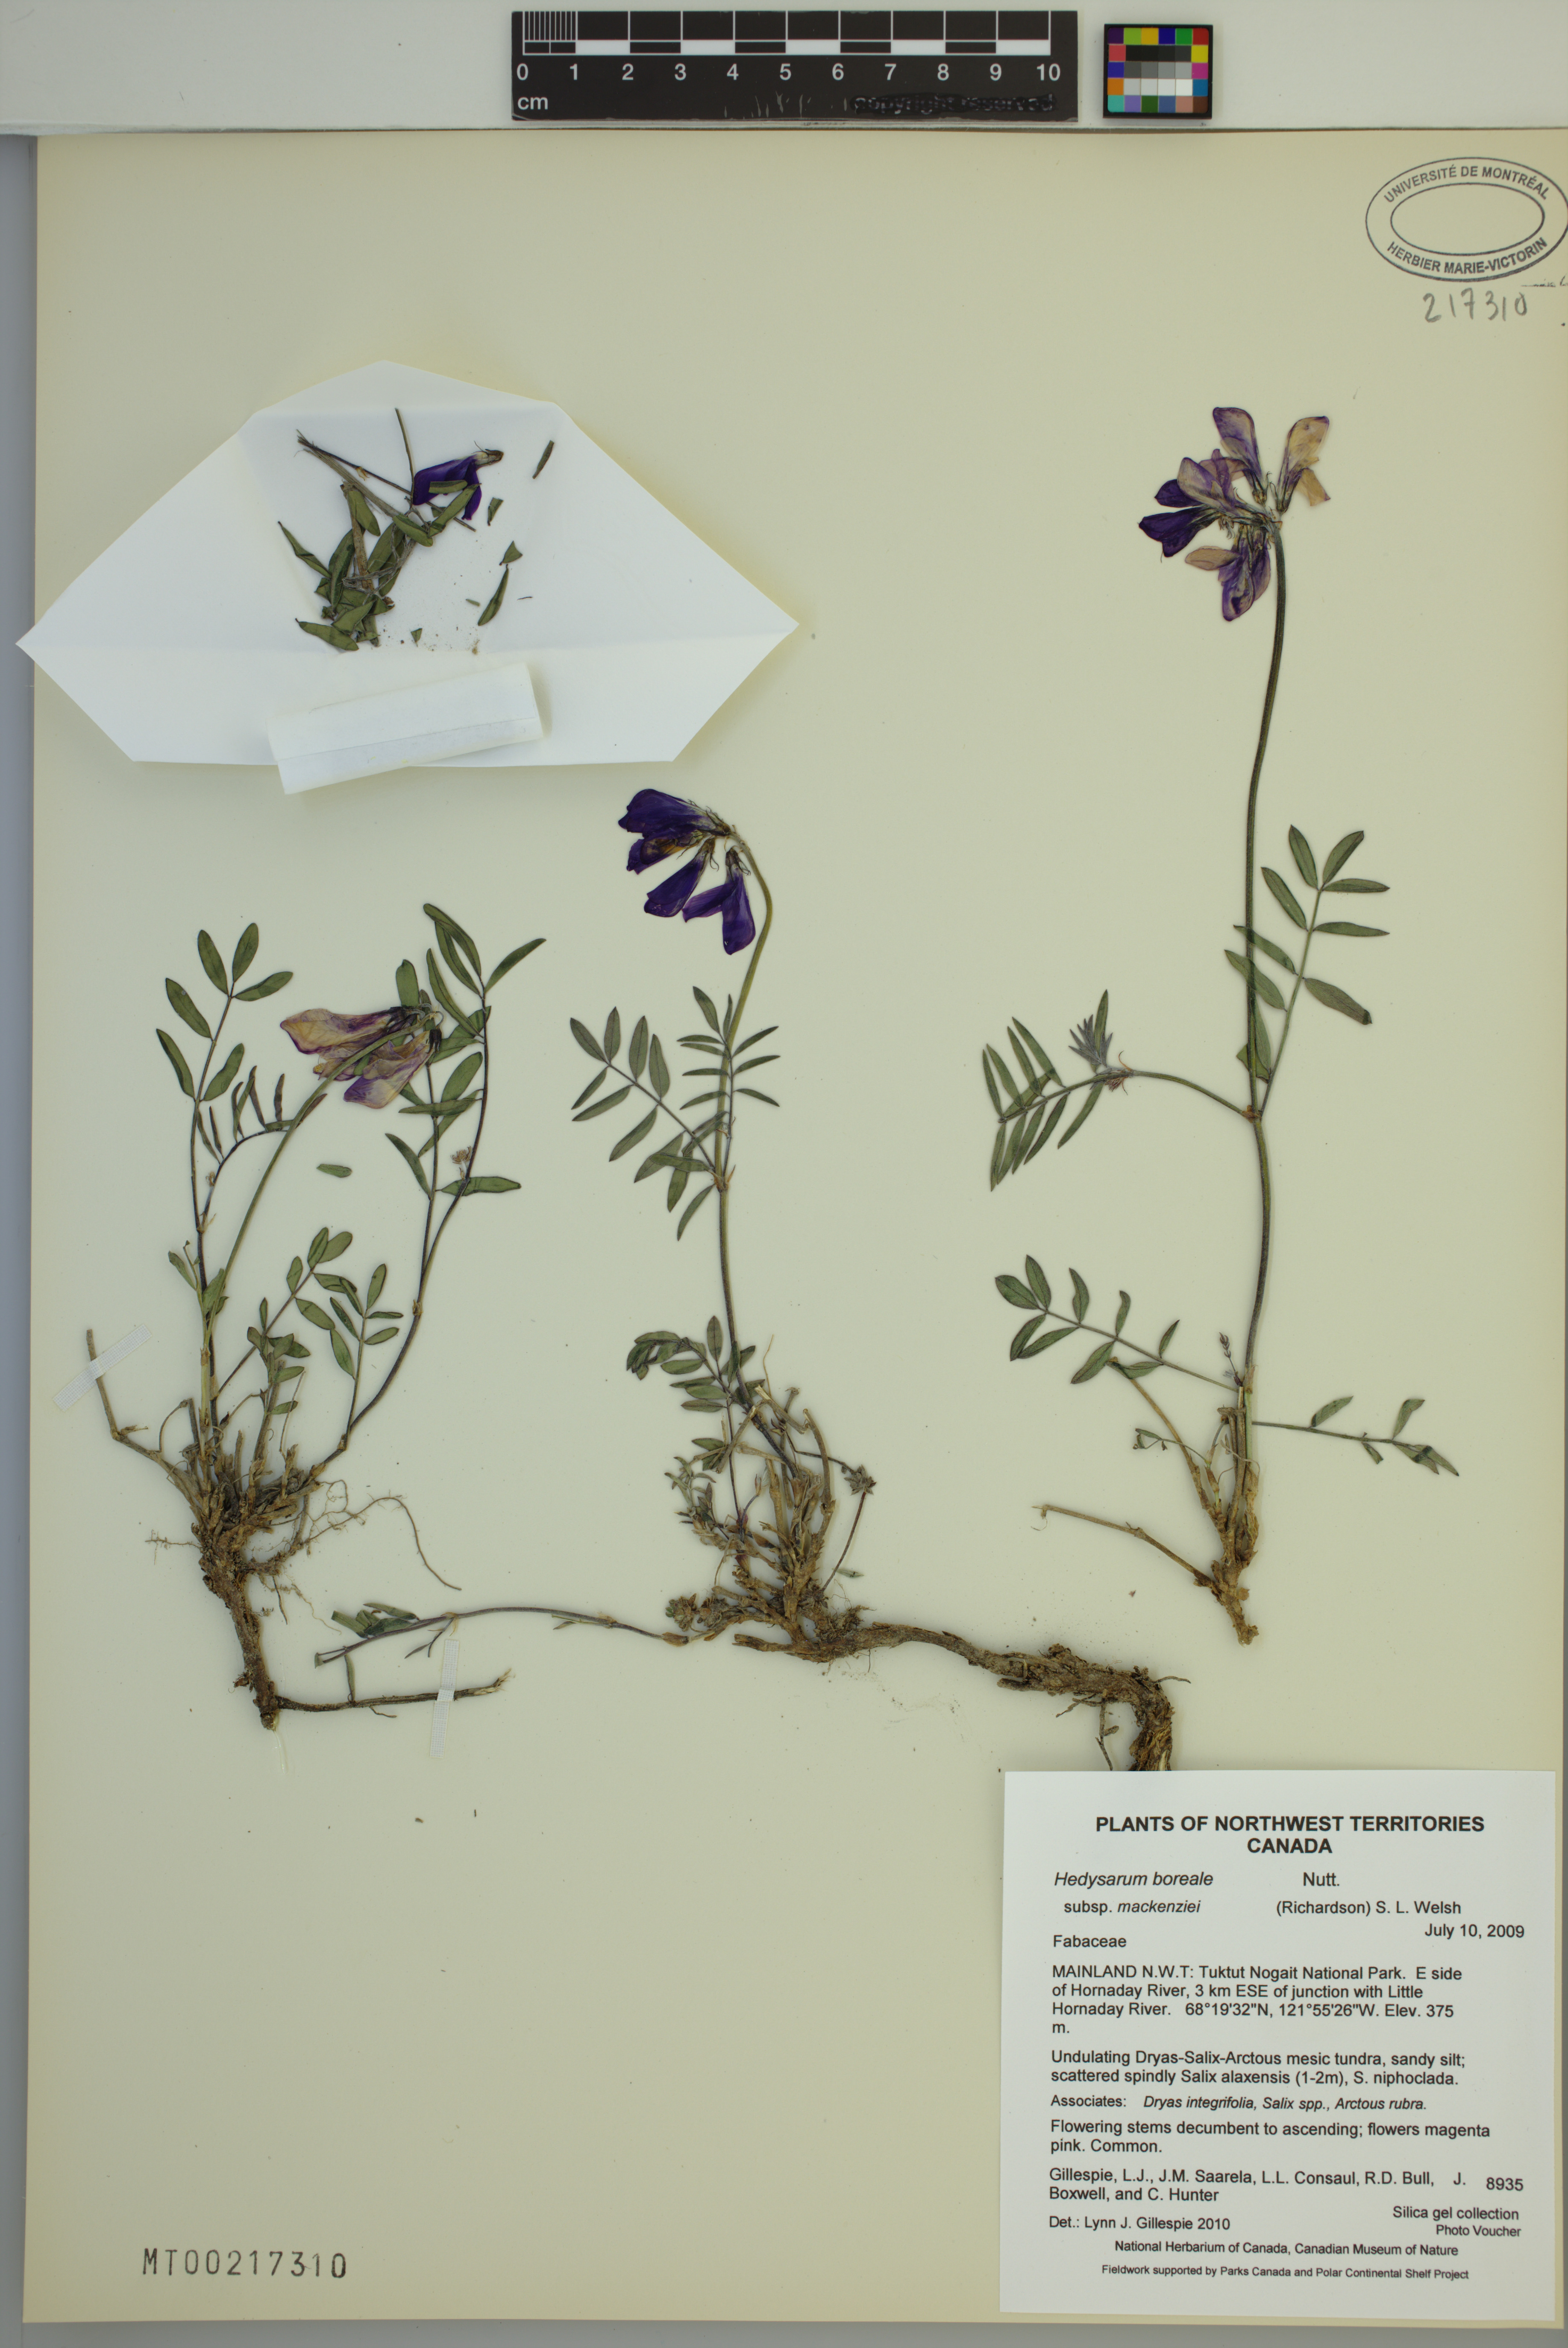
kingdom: Plantae
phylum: Tracheophyta
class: Magnoliopsida
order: Fabales
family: Fabaceae
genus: Hedysarum
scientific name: Hedysarum boreale
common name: Northern sweet-vetch
